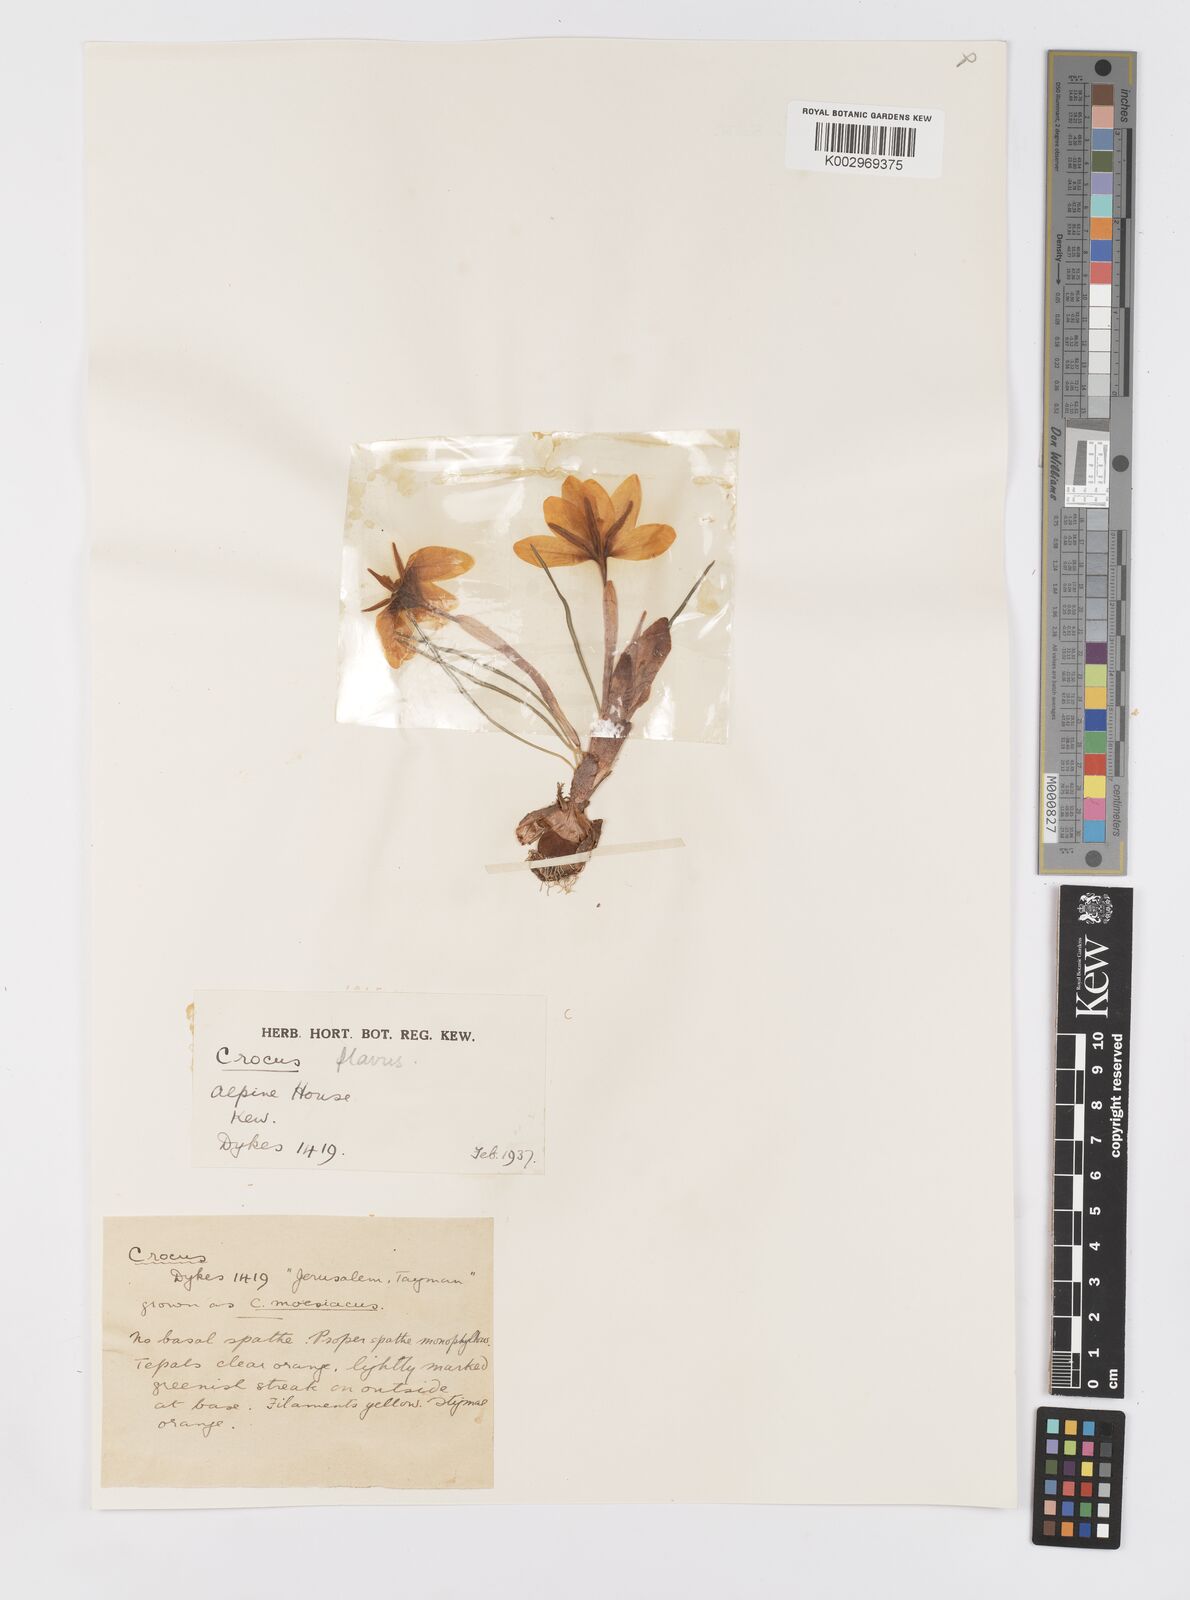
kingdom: Plantae
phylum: Tracheophyta
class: Liliopsida
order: Asparagales
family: Iridaceae
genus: Crocus
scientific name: Crocus flavus
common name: Yellow crocus
